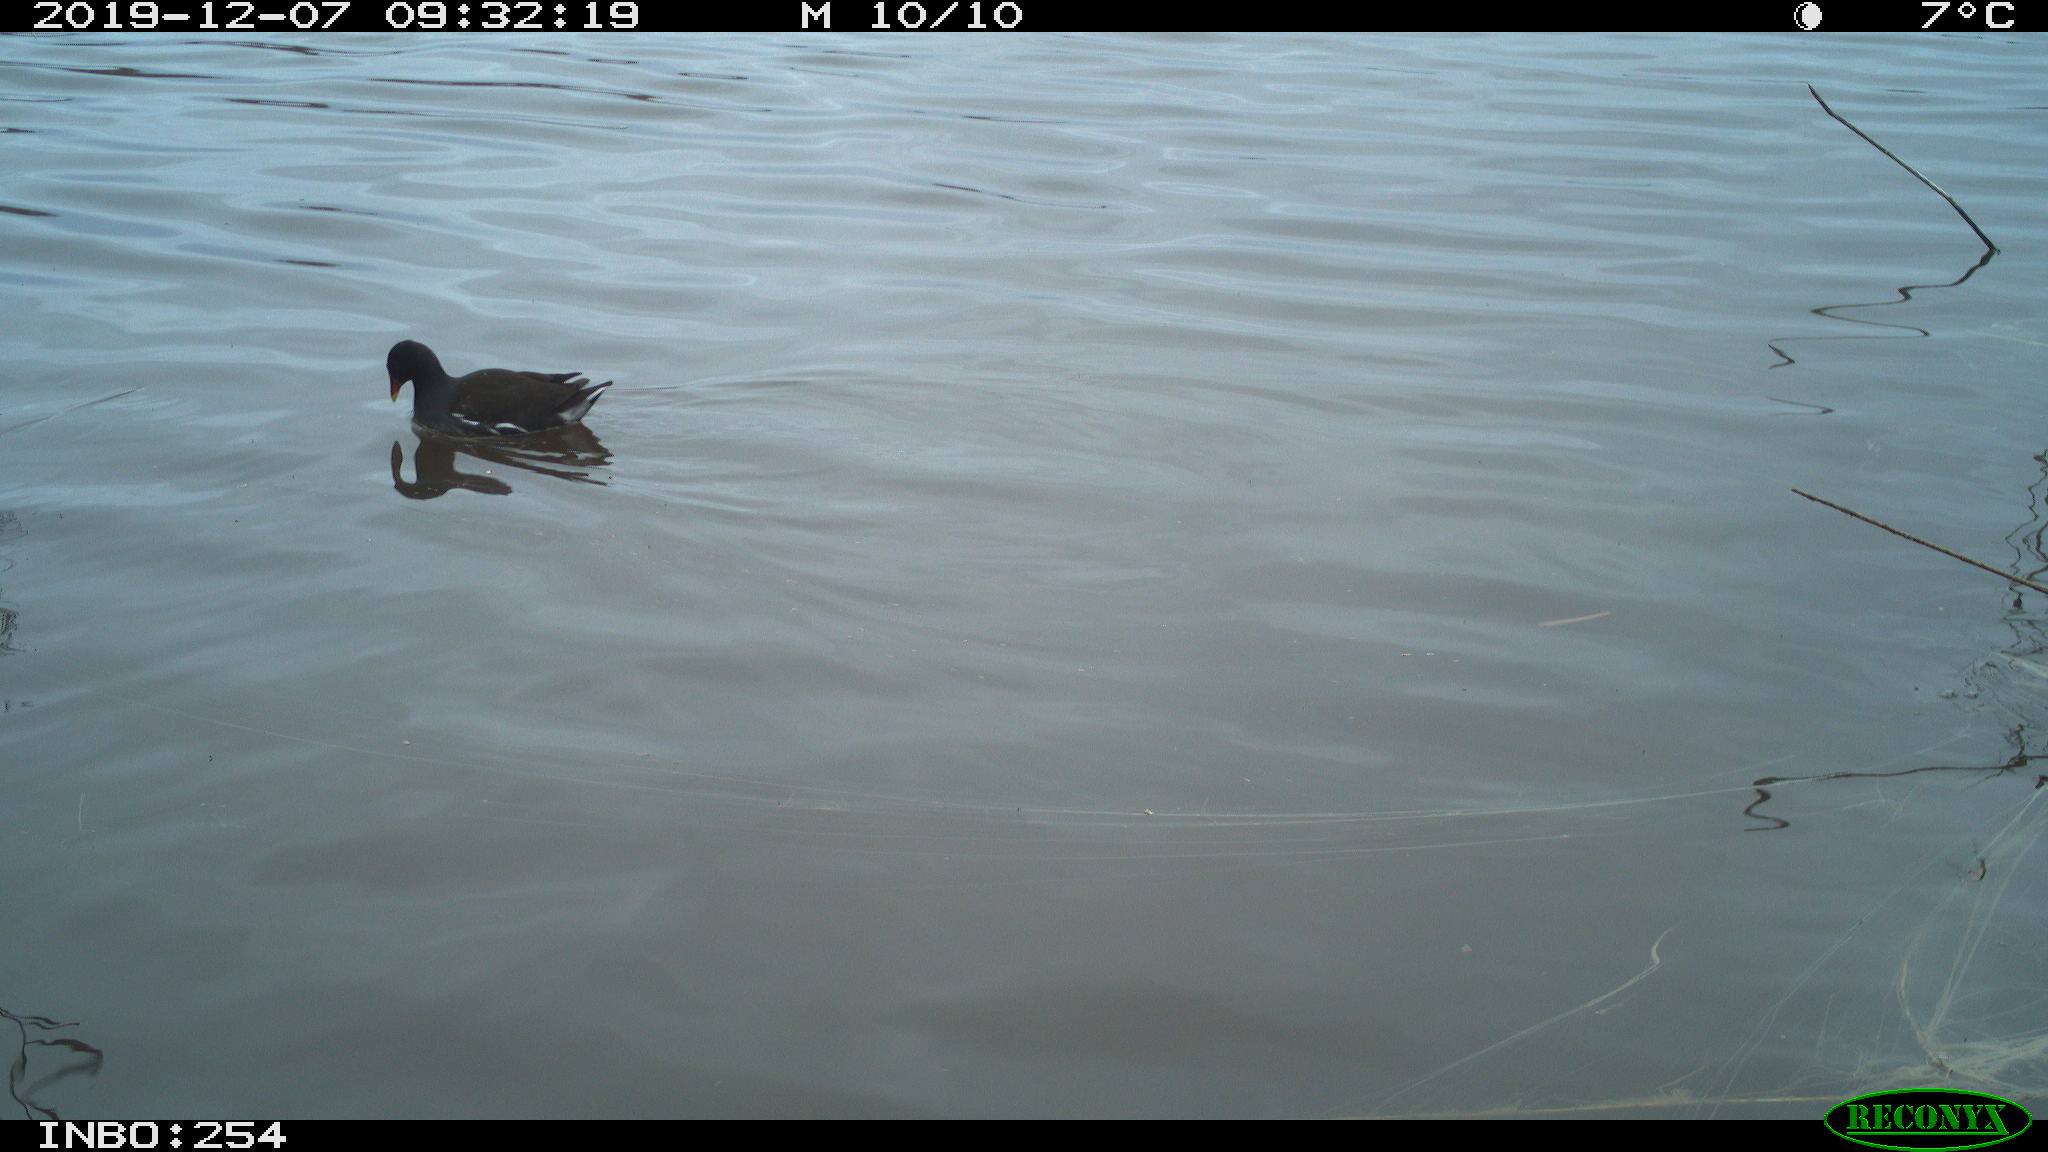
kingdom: Animalia
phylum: Chordata
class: Aves
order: Gruiformes
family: Rallidae
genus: Gallinula
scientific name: Gallinula chloropus
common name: Common moorhen
